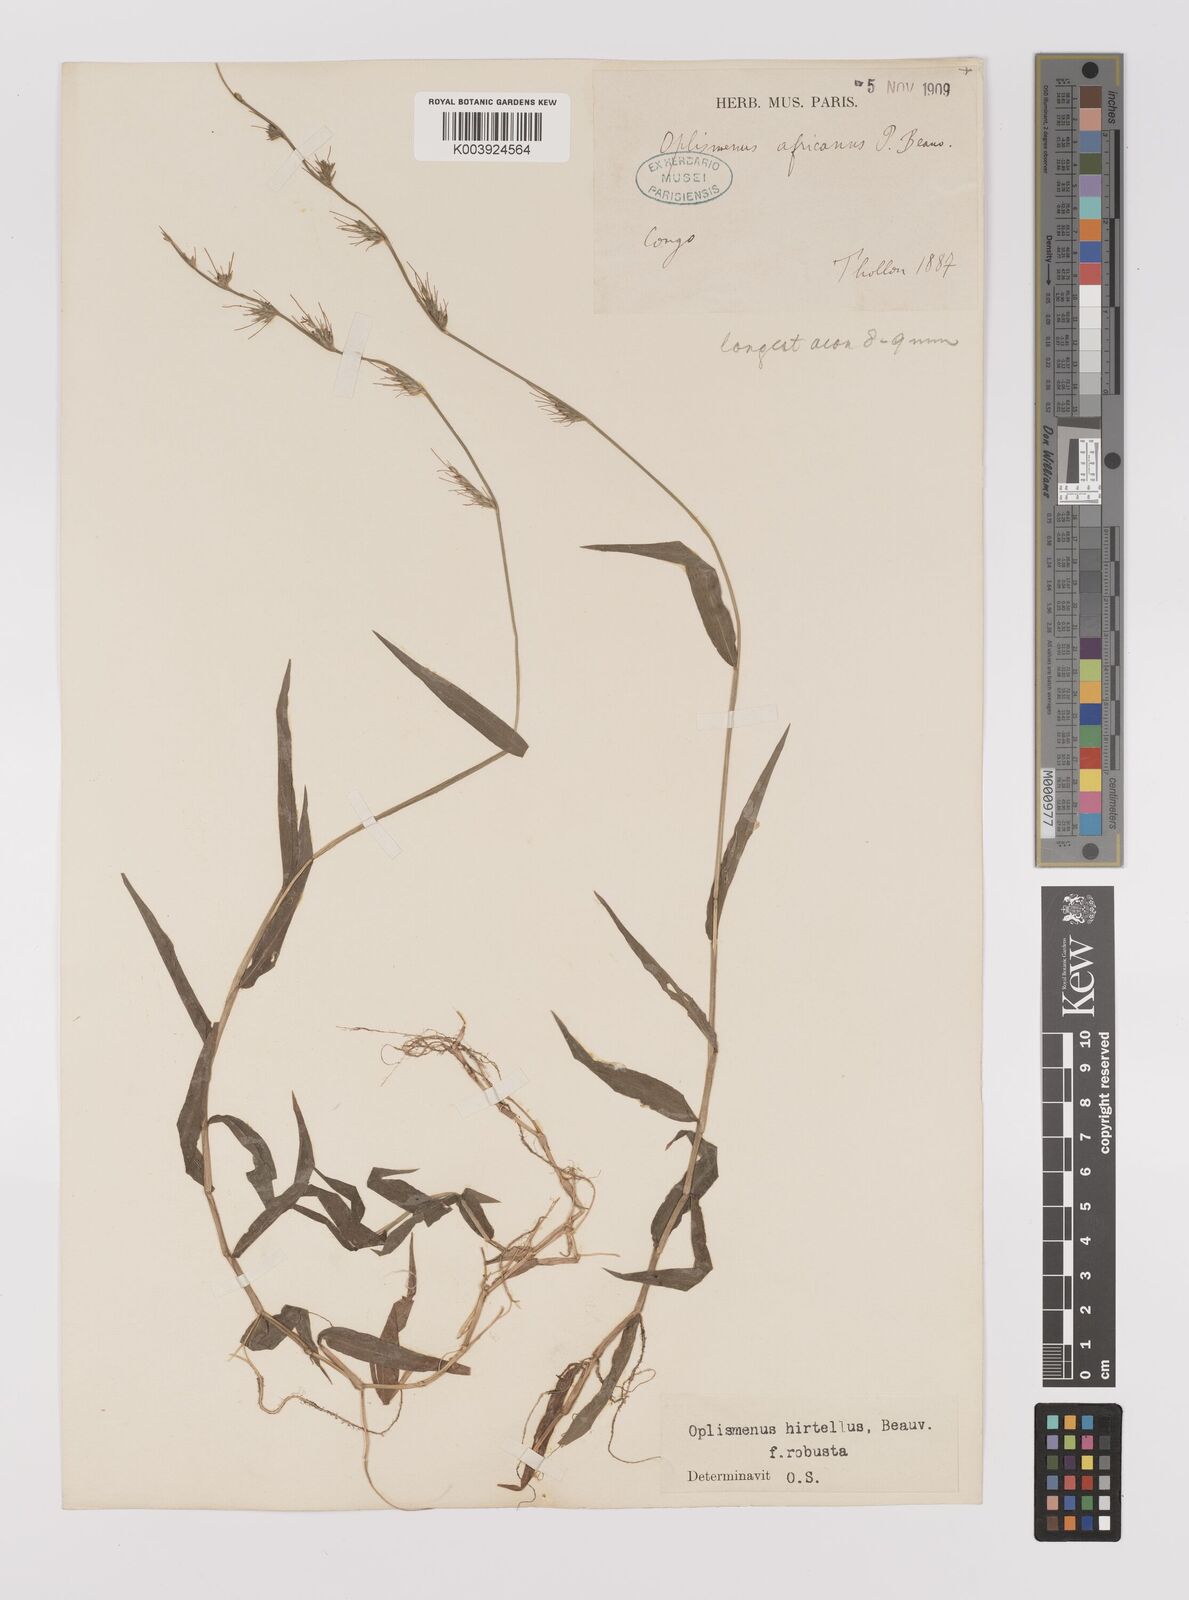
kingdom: Plantae
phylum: Tracheophyta
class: Liliopsida
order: Poales
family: Poaceae
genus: Oplismenus
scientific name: Oplismenus hirtellus
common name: Basketgrass
